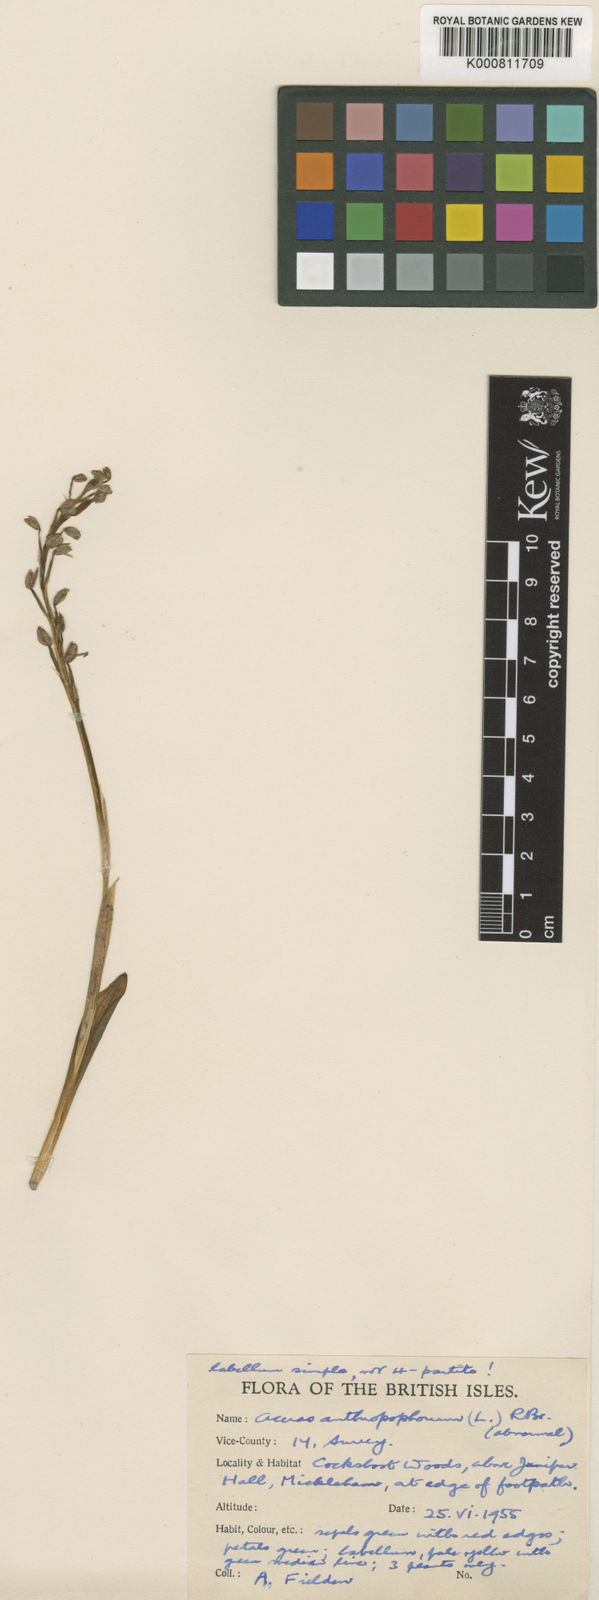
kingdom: Plantae
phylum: Tracheophyta
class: Liliopsida
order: Asparagales
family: Orchidaceae
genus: Orchis
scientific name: Orchis
